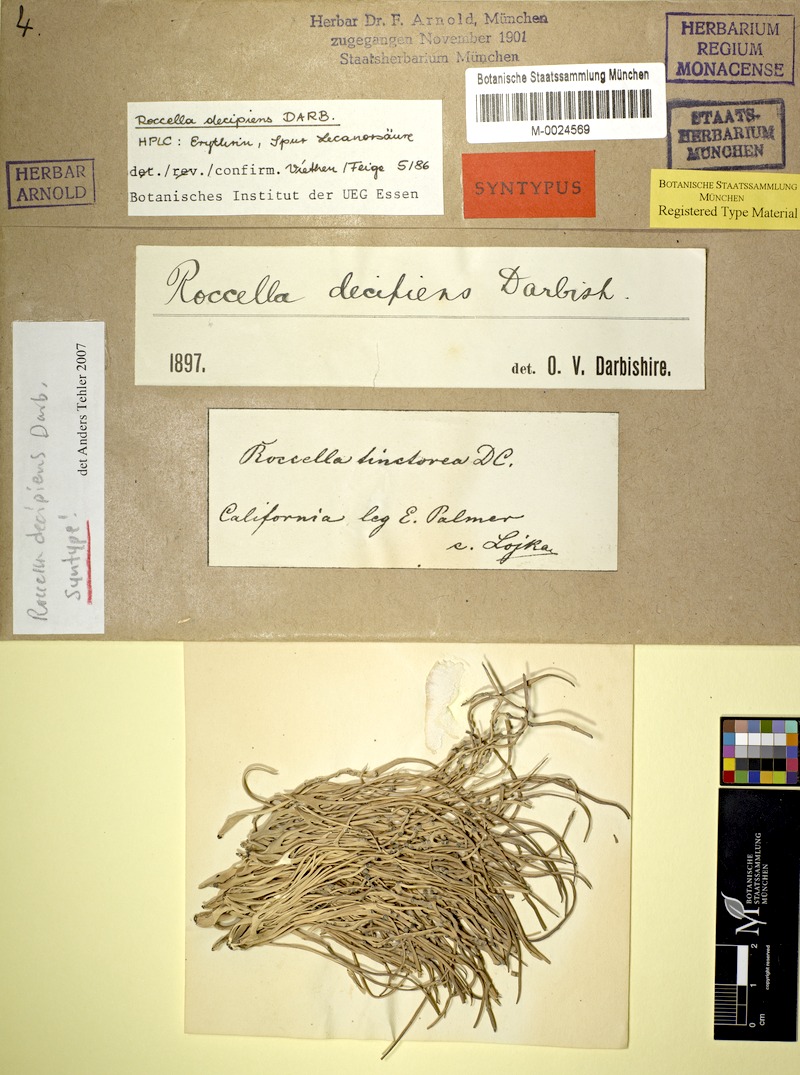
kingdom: Fungi
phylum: Ascomycota
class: Arthoniomycetes
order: Arthoniales
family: Roccellaceae
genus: Roccella
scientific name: Roccella decipiens
